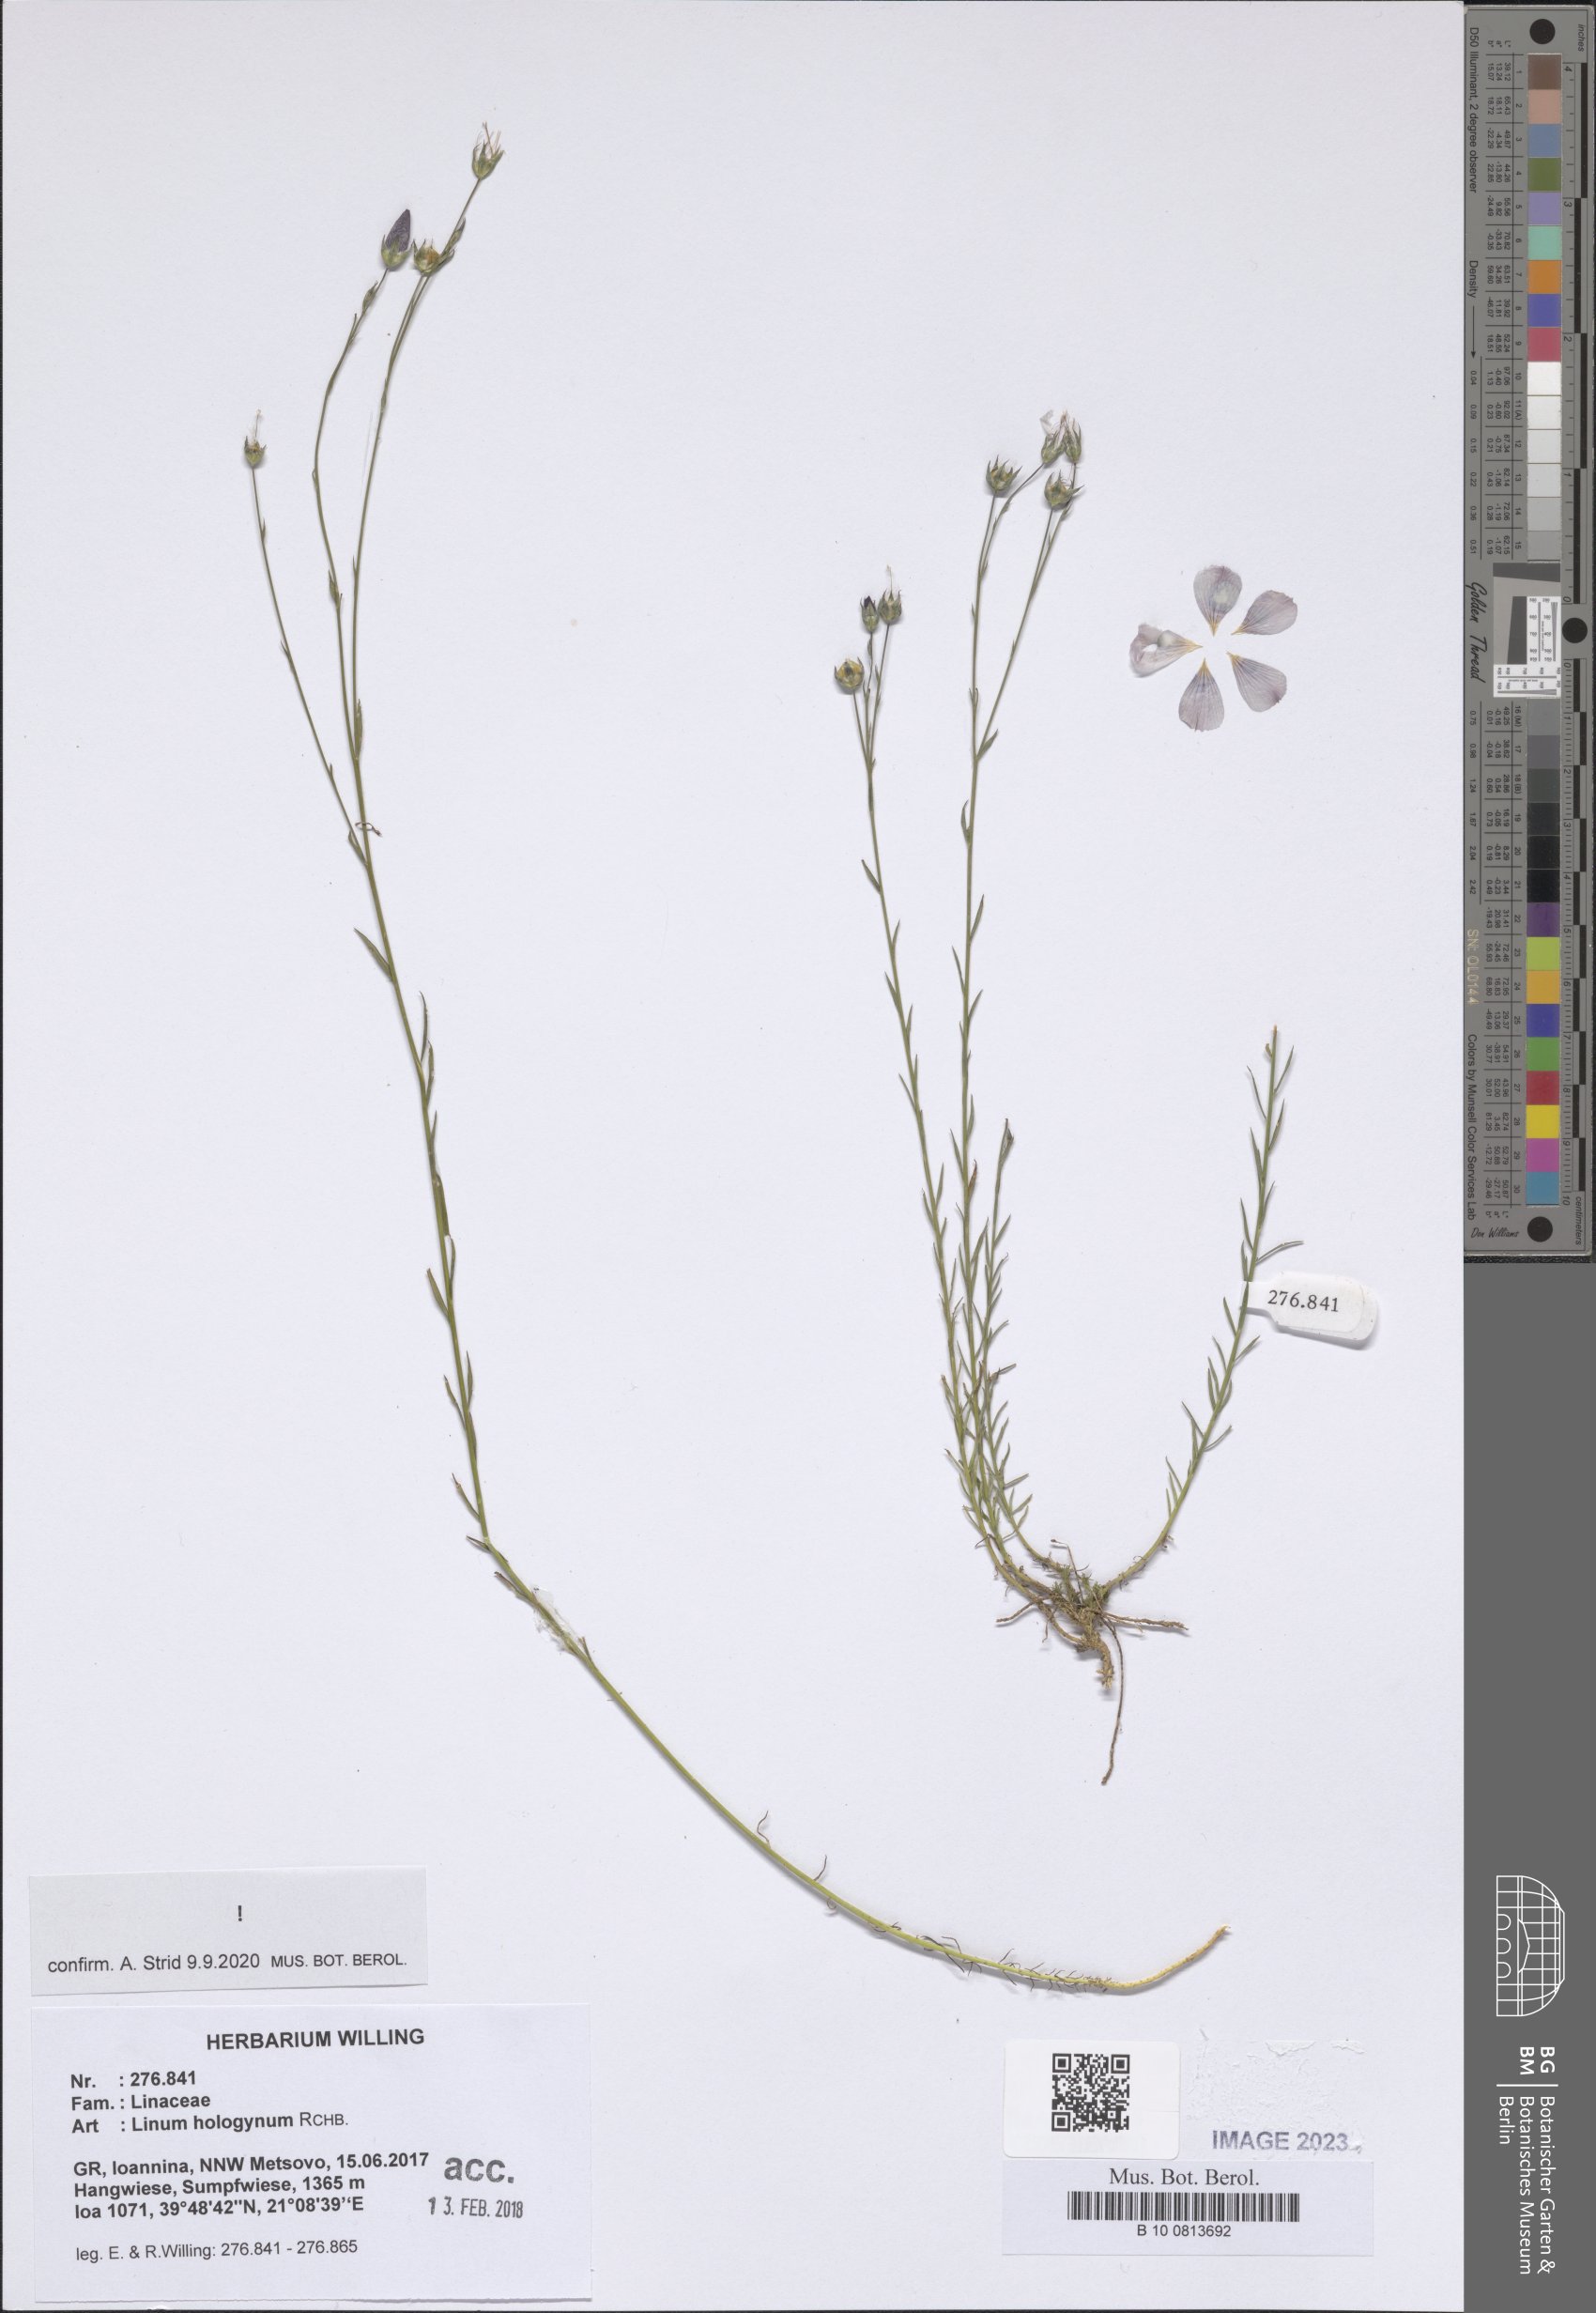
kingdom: Plantae
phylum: Tracheophyta
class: Magnoliopsida
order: Malpighiales
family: Linaceae
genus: Linum
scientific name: Linum hologynum
